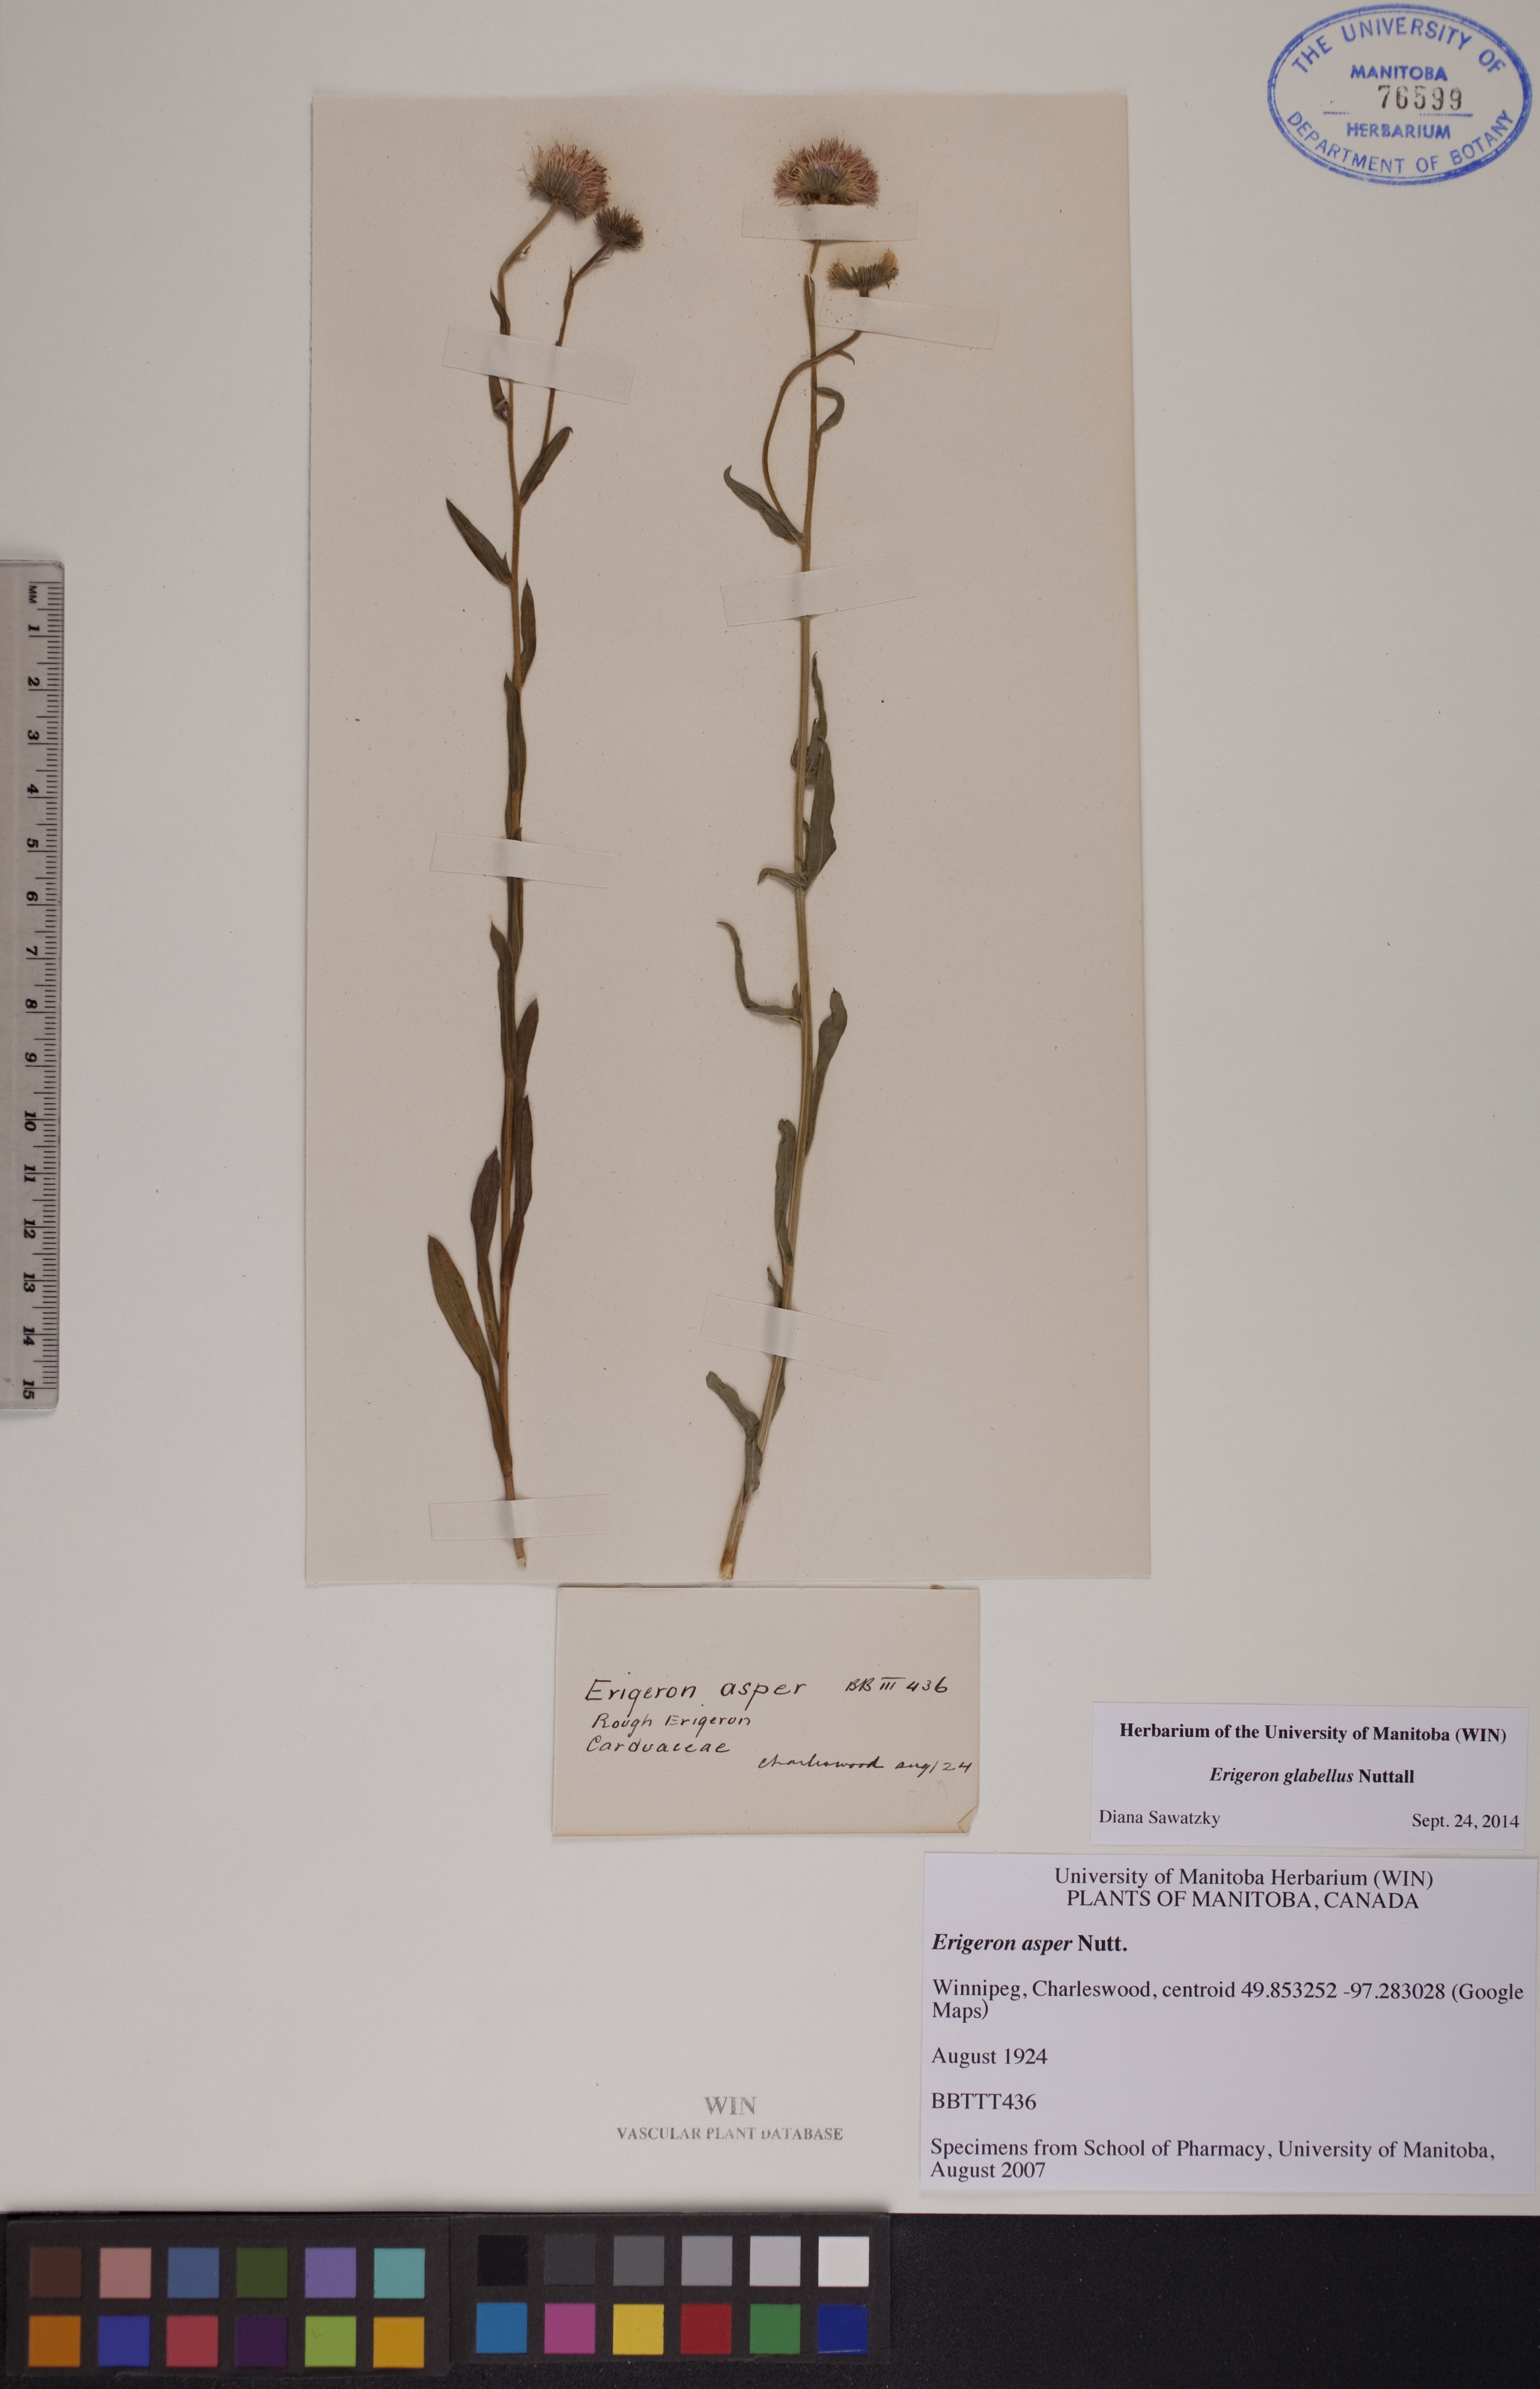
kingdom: Plantae
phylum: Tracheophyta
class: Magnoliopsida
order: Asterales
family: Asteraceae
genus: Erigeron
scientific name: Erigeron glabellus
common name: Smooth fleabane
